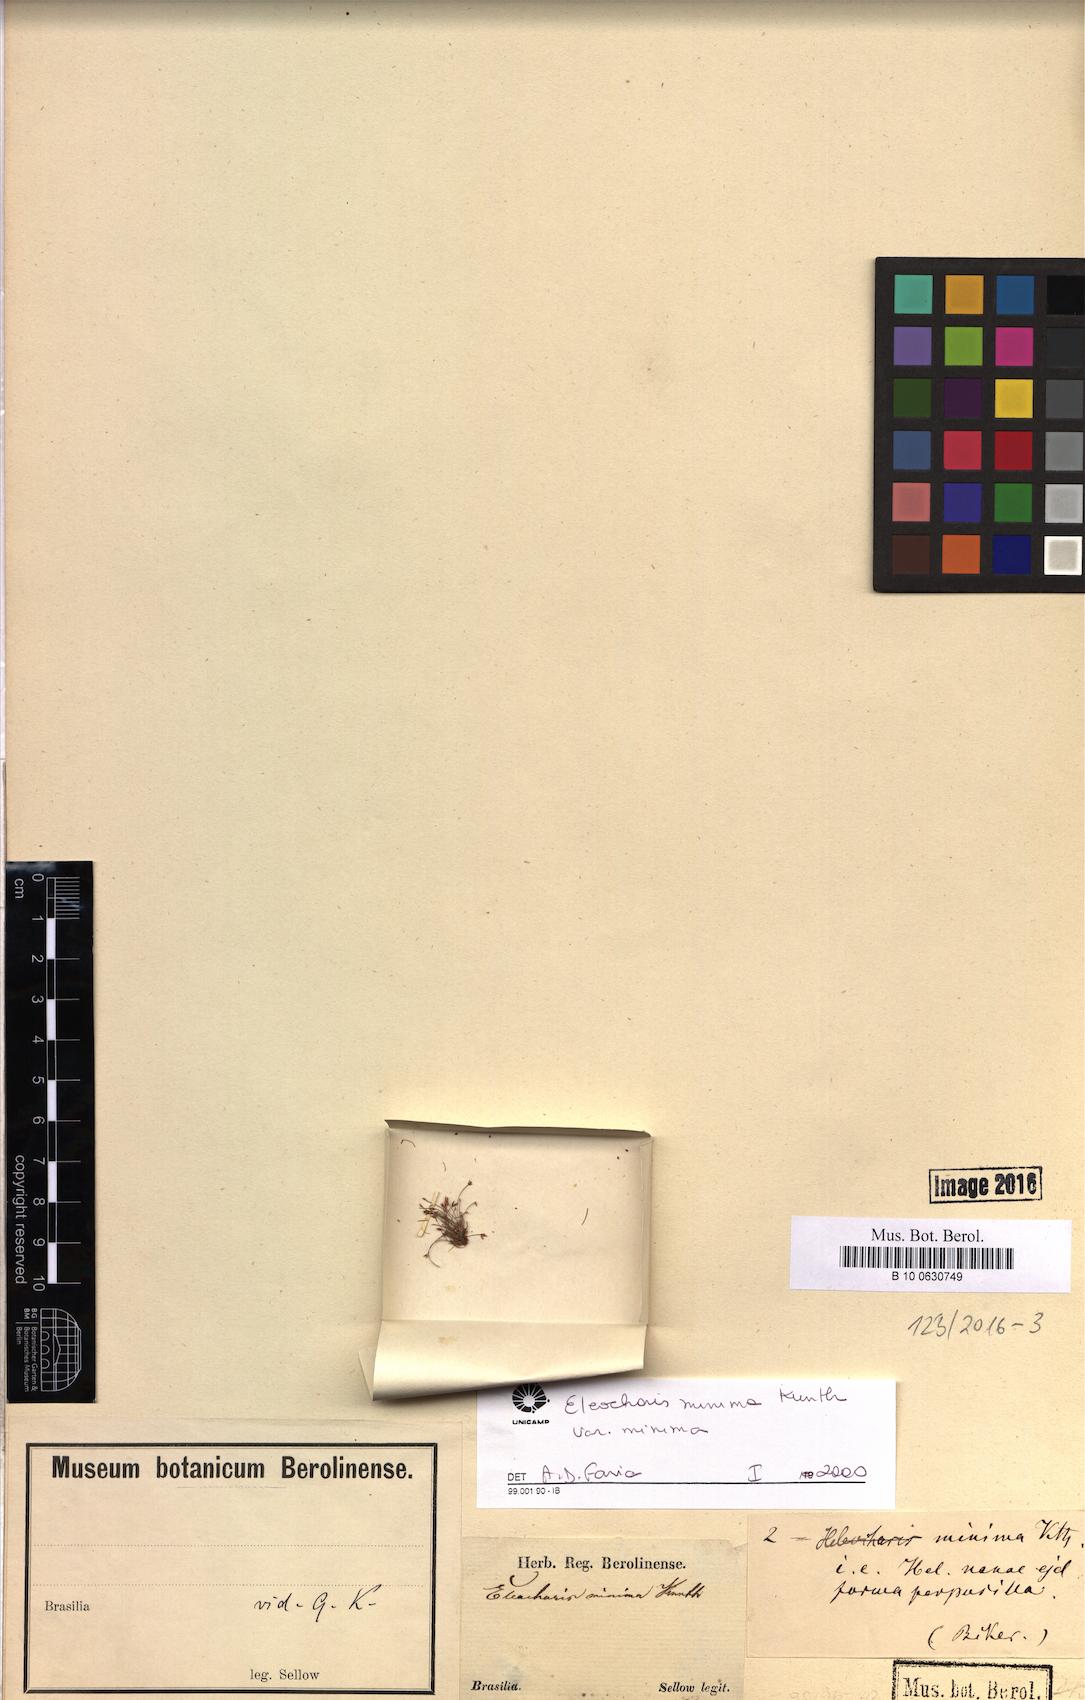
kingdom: Plantae
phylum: Tracheophyta
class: Liliopsida
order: Poales
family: Cyperaceae
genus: Eleocharis
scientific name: Eleocharis minima
